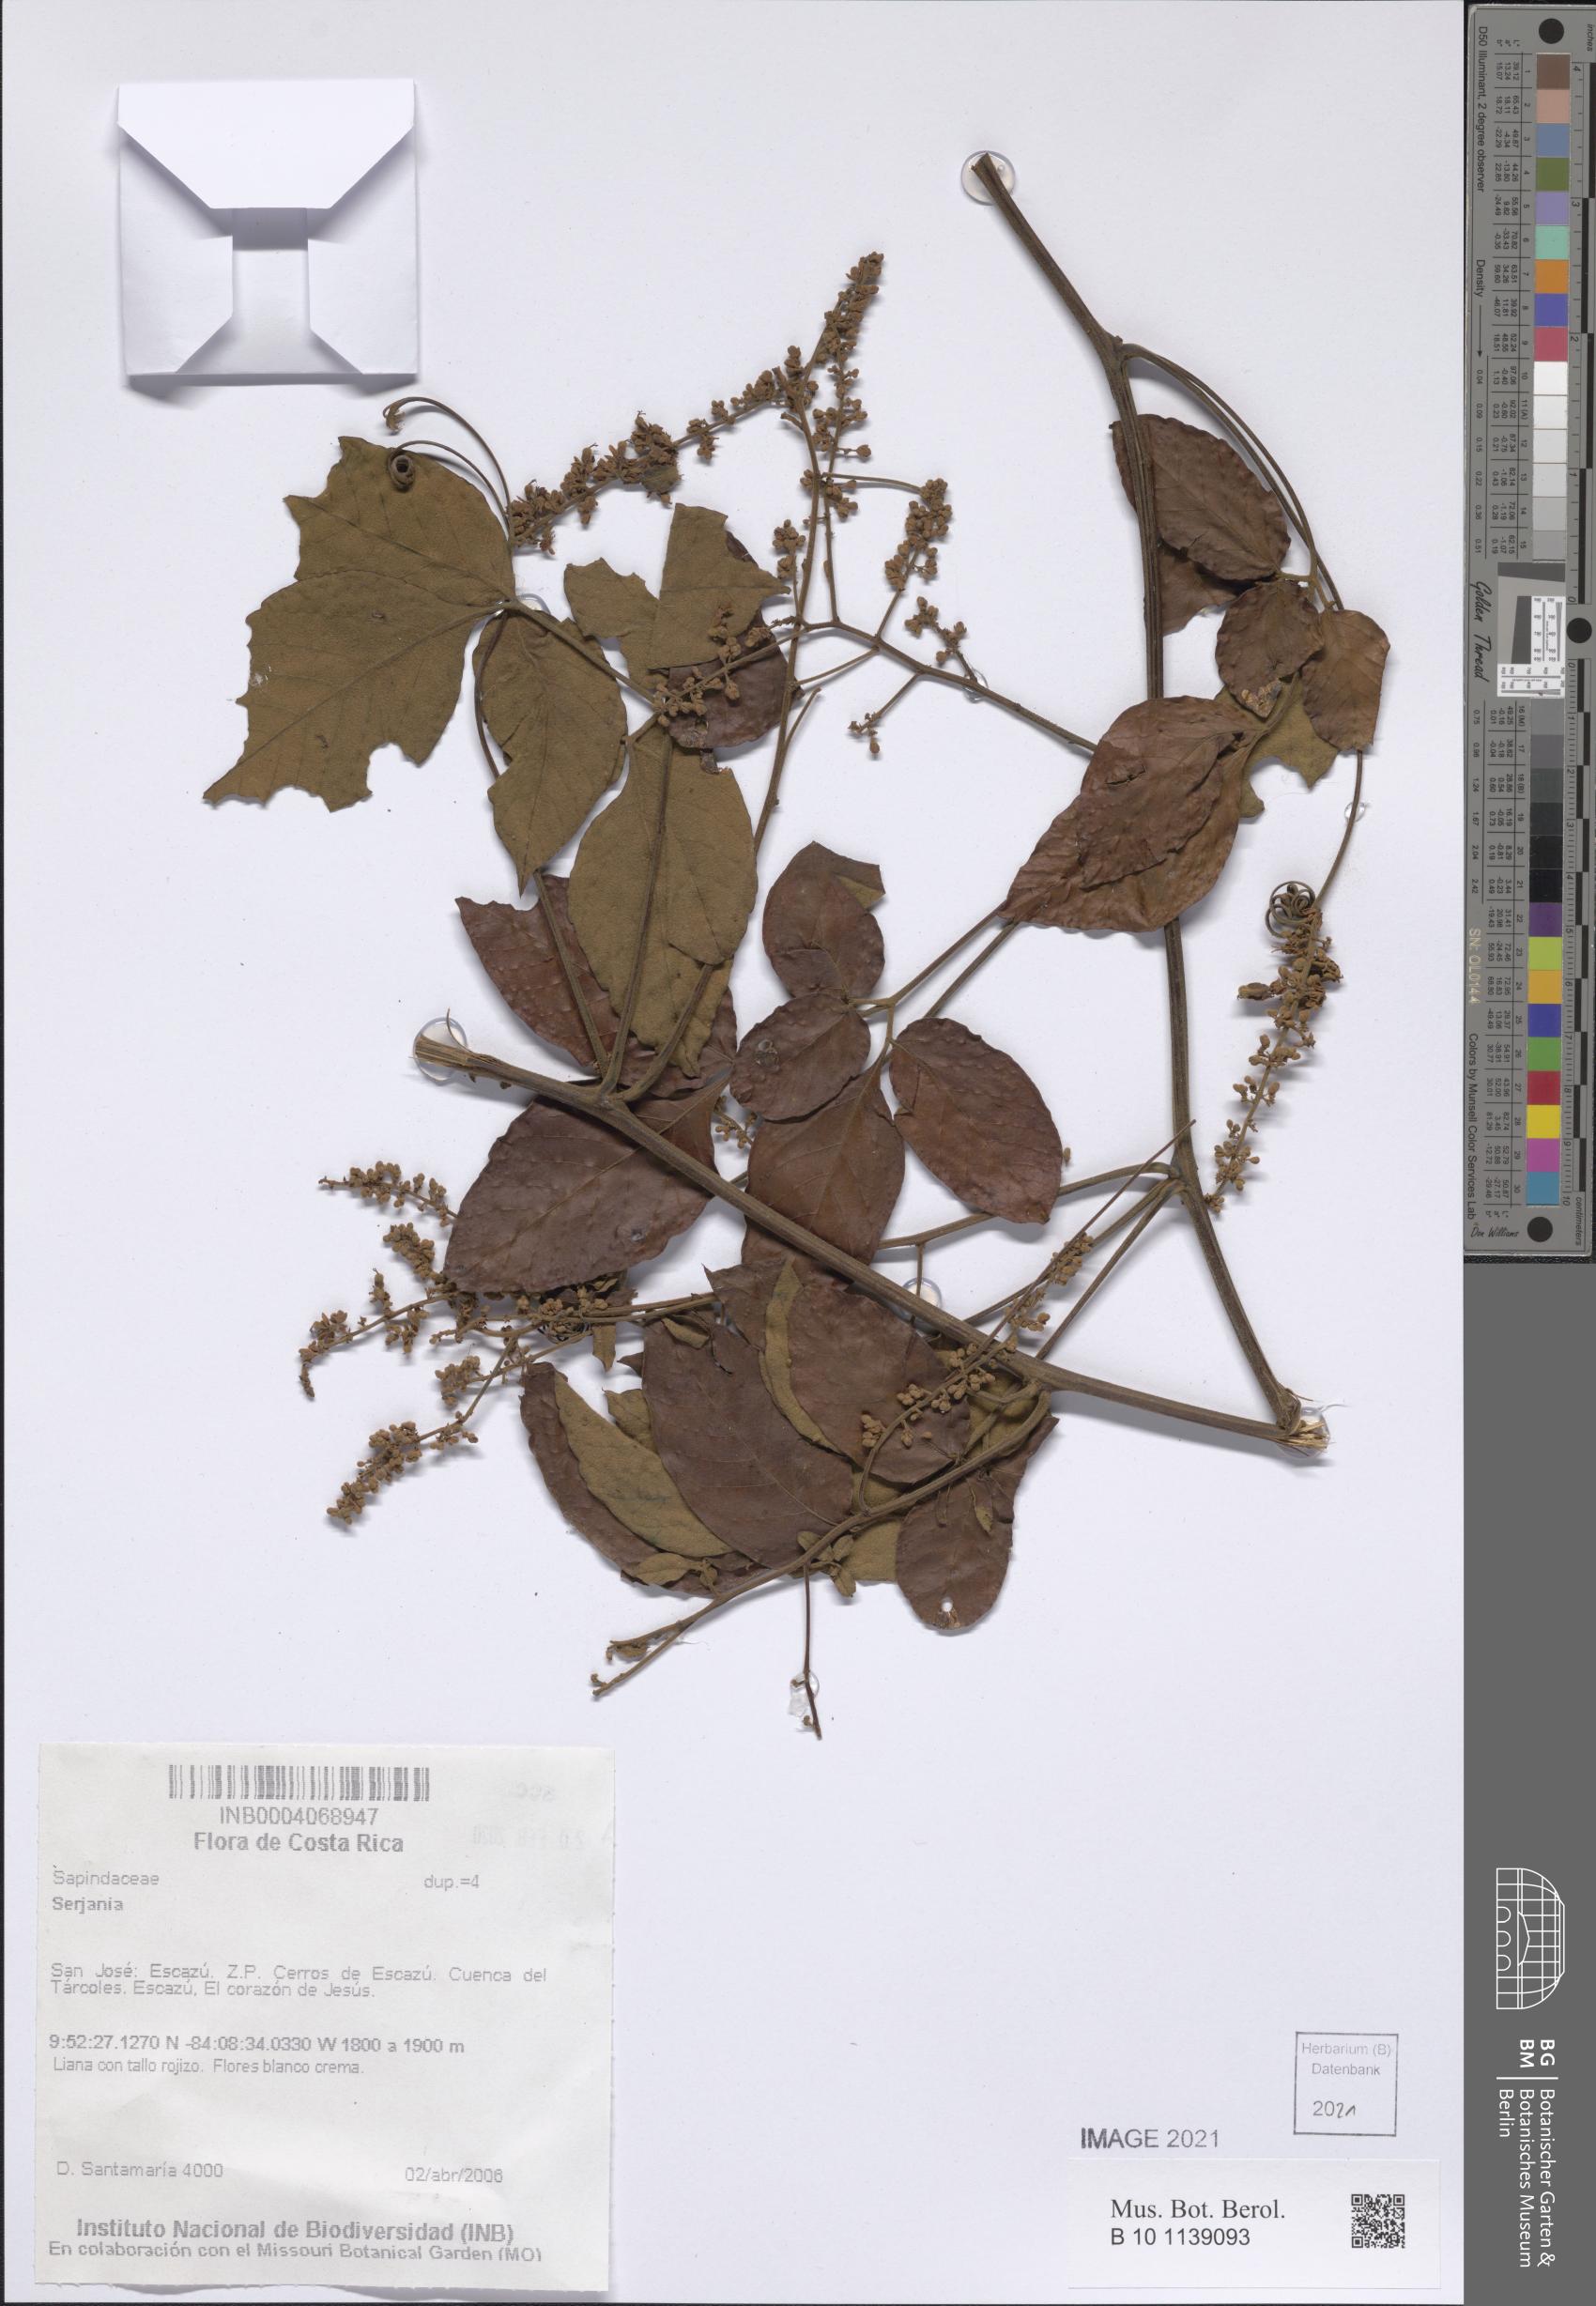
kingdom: Plantae
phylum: Tracheophyta
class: Magnoliopsida
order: Sapindales
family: Sapindaceae
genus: Serjania
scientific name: Serjania
